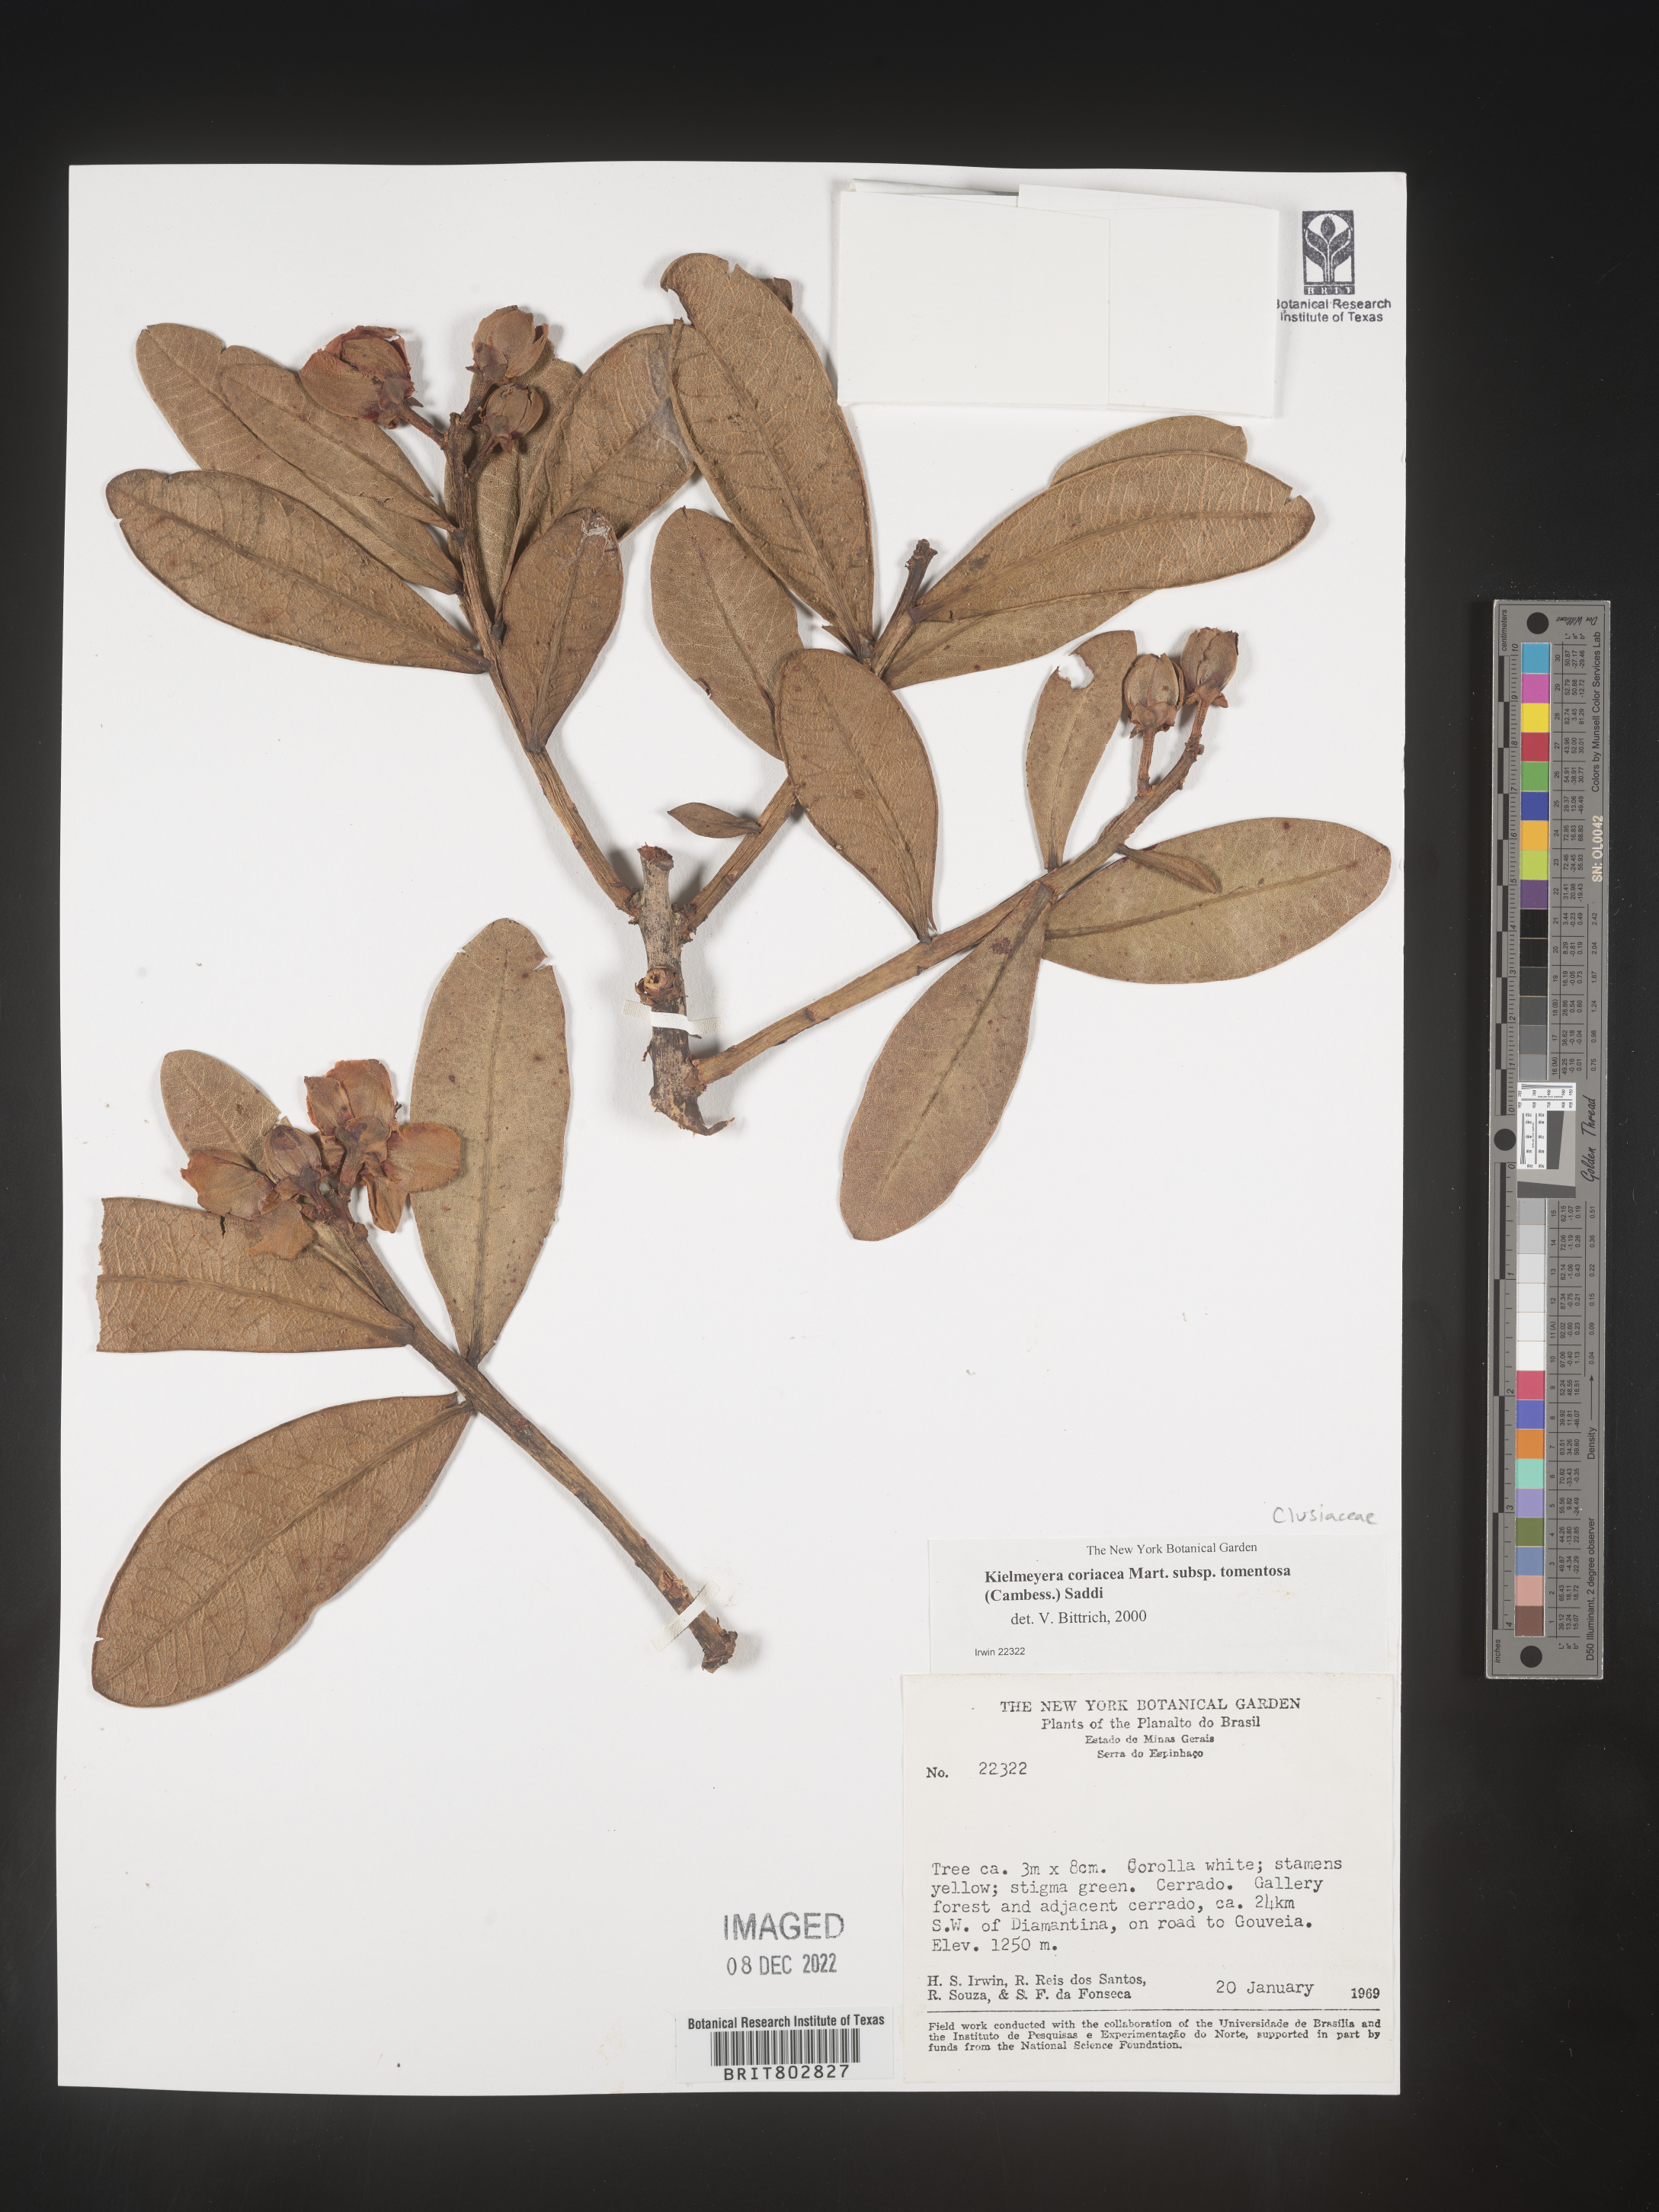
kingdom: Plantae
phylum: Tracheophyta
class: Magnoliopsida
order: Malpighiales
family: Calophyllaceae
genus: Kielmeyera
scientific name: Kielmeyera
